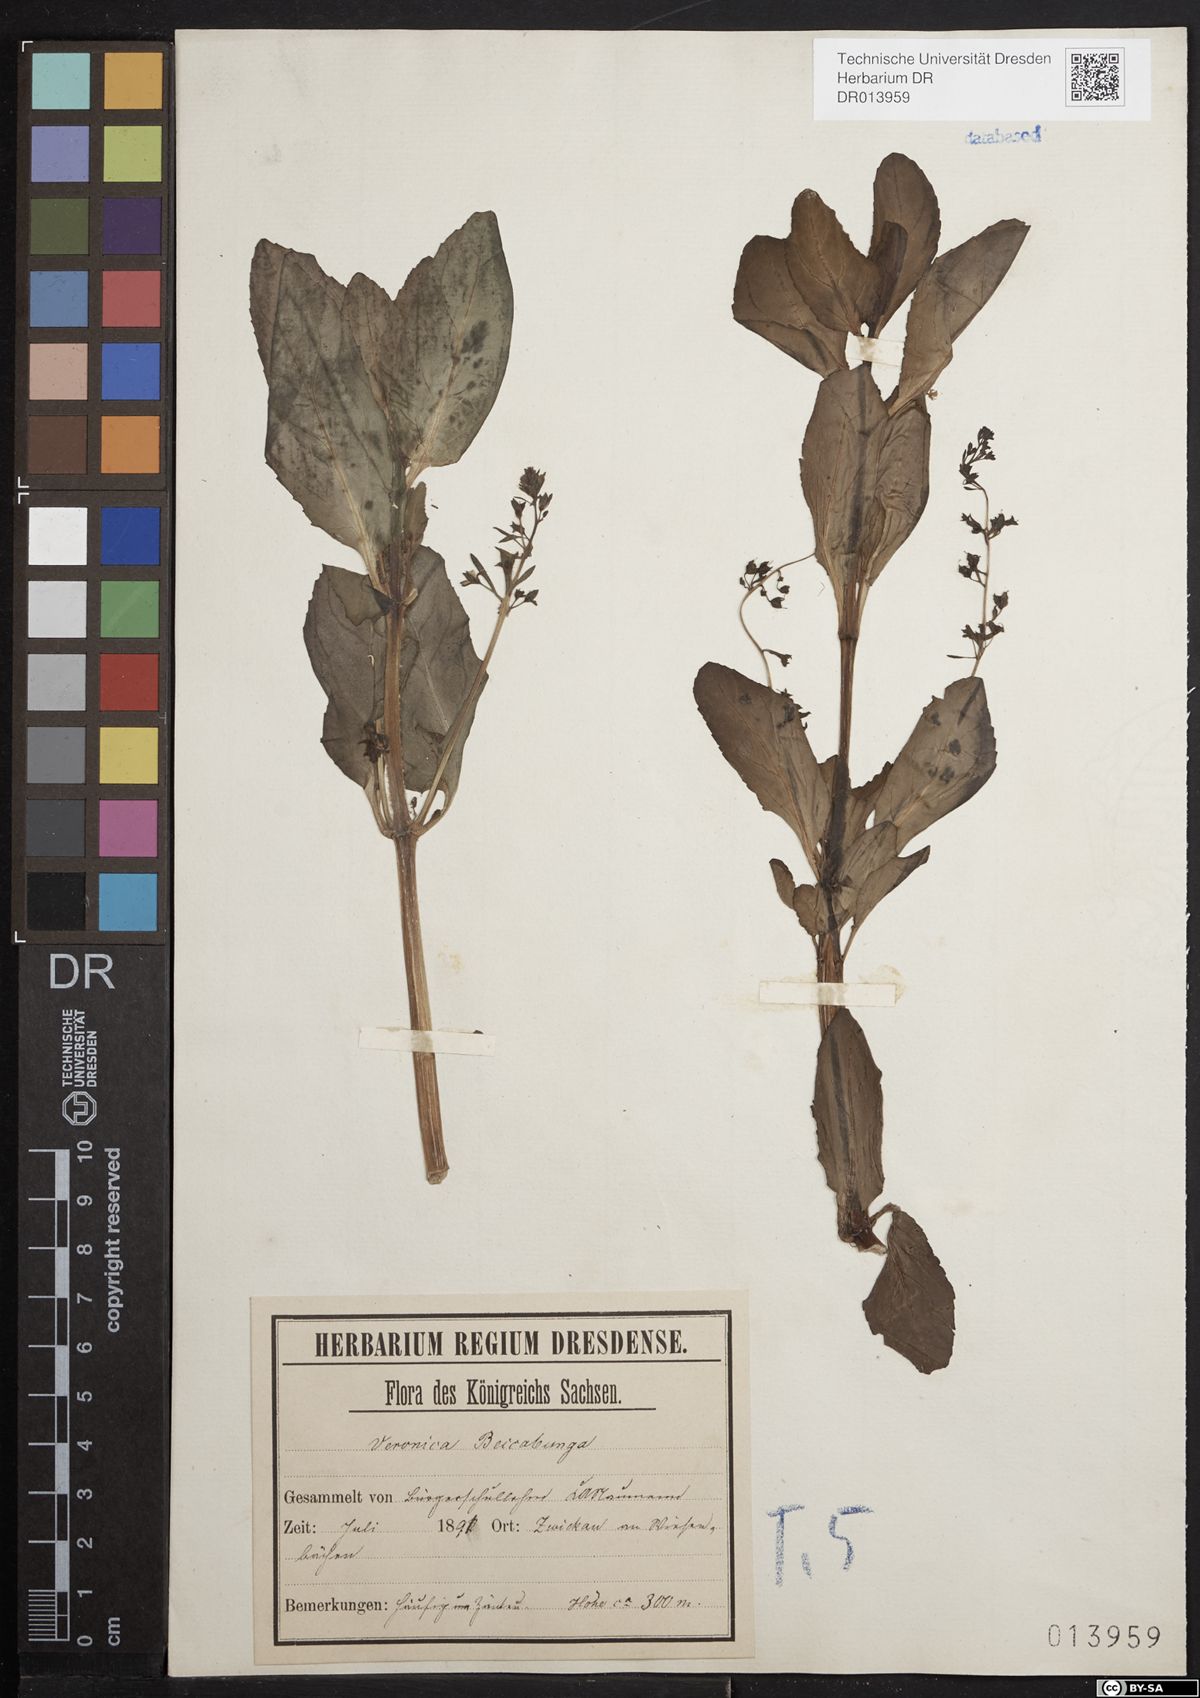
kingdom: Plantae
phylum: Tracheophyta
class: Magnoliopsida
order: Lamiales
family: Plantaginaceae
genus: Veronica
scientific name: Veronica beccabunga
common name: Brooklime
